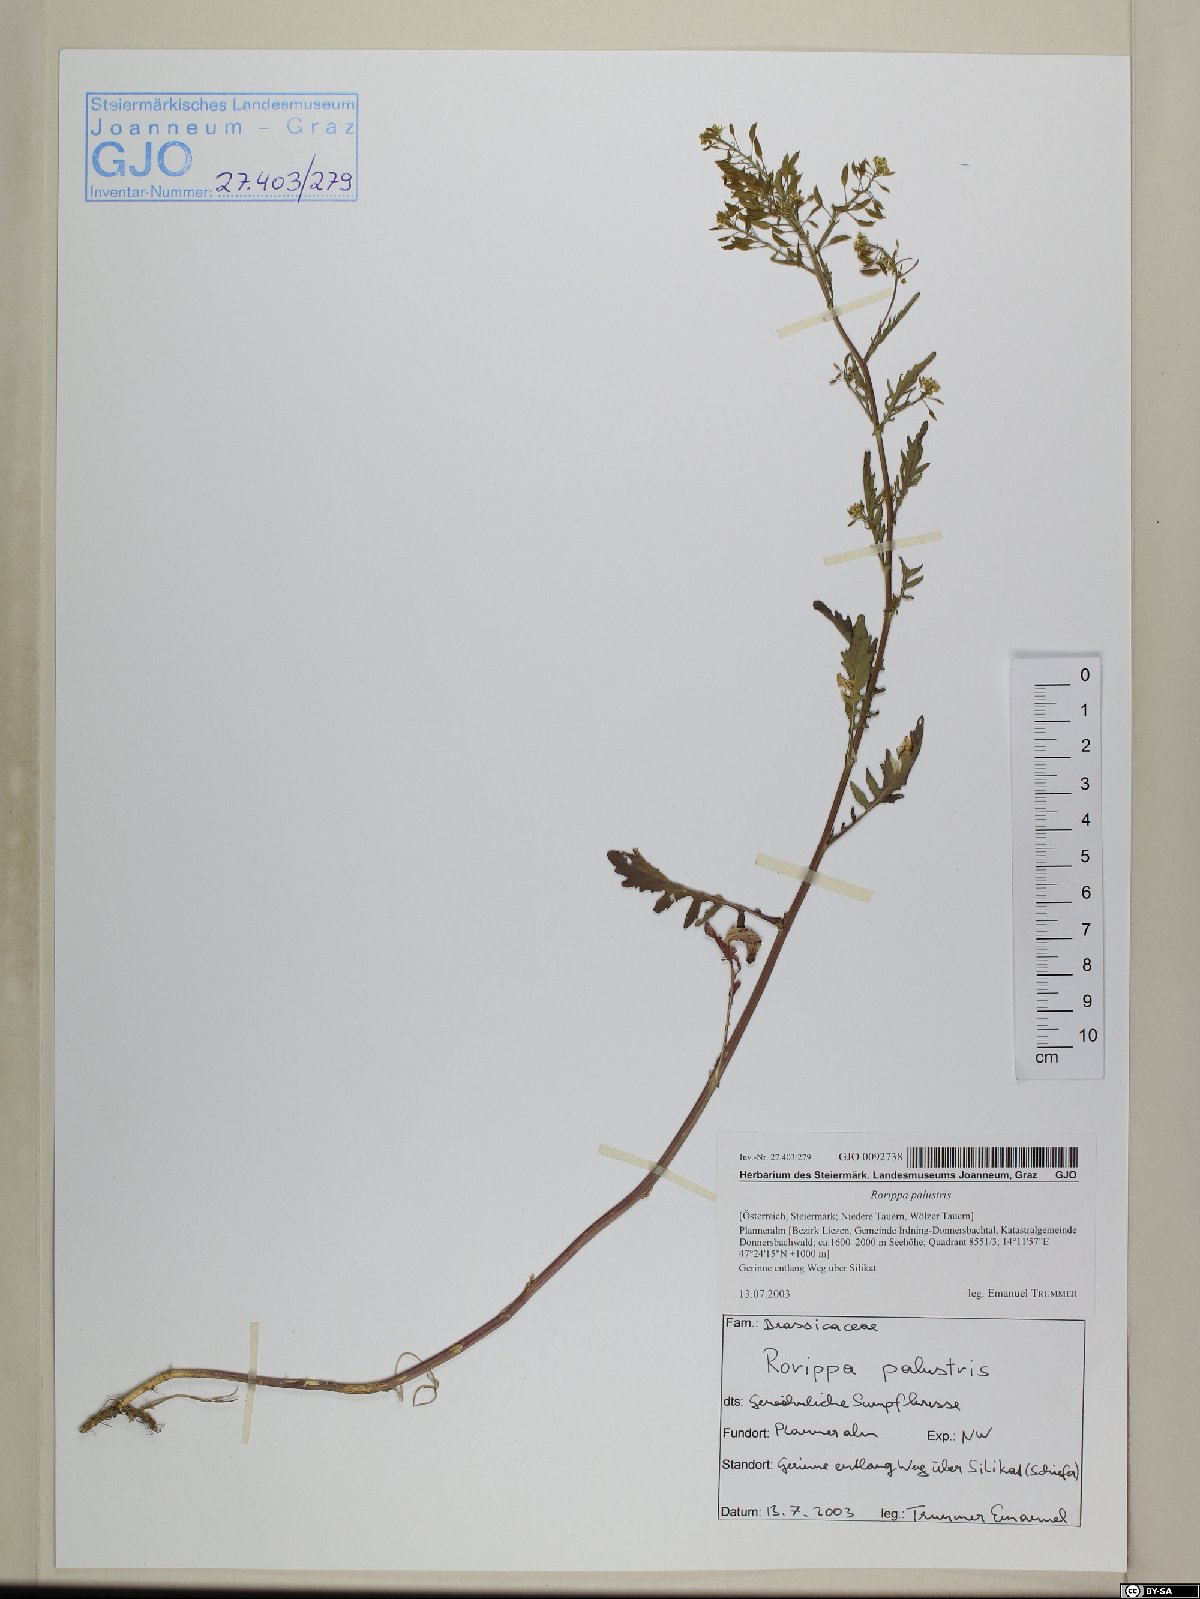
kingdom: Plantae
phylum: Tracheophyta
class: Magnoliopsida
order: Brassicales
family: Brassicaceae
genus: Rorippa
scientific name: Rorippa palustris
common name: Marsh yellow-cress
